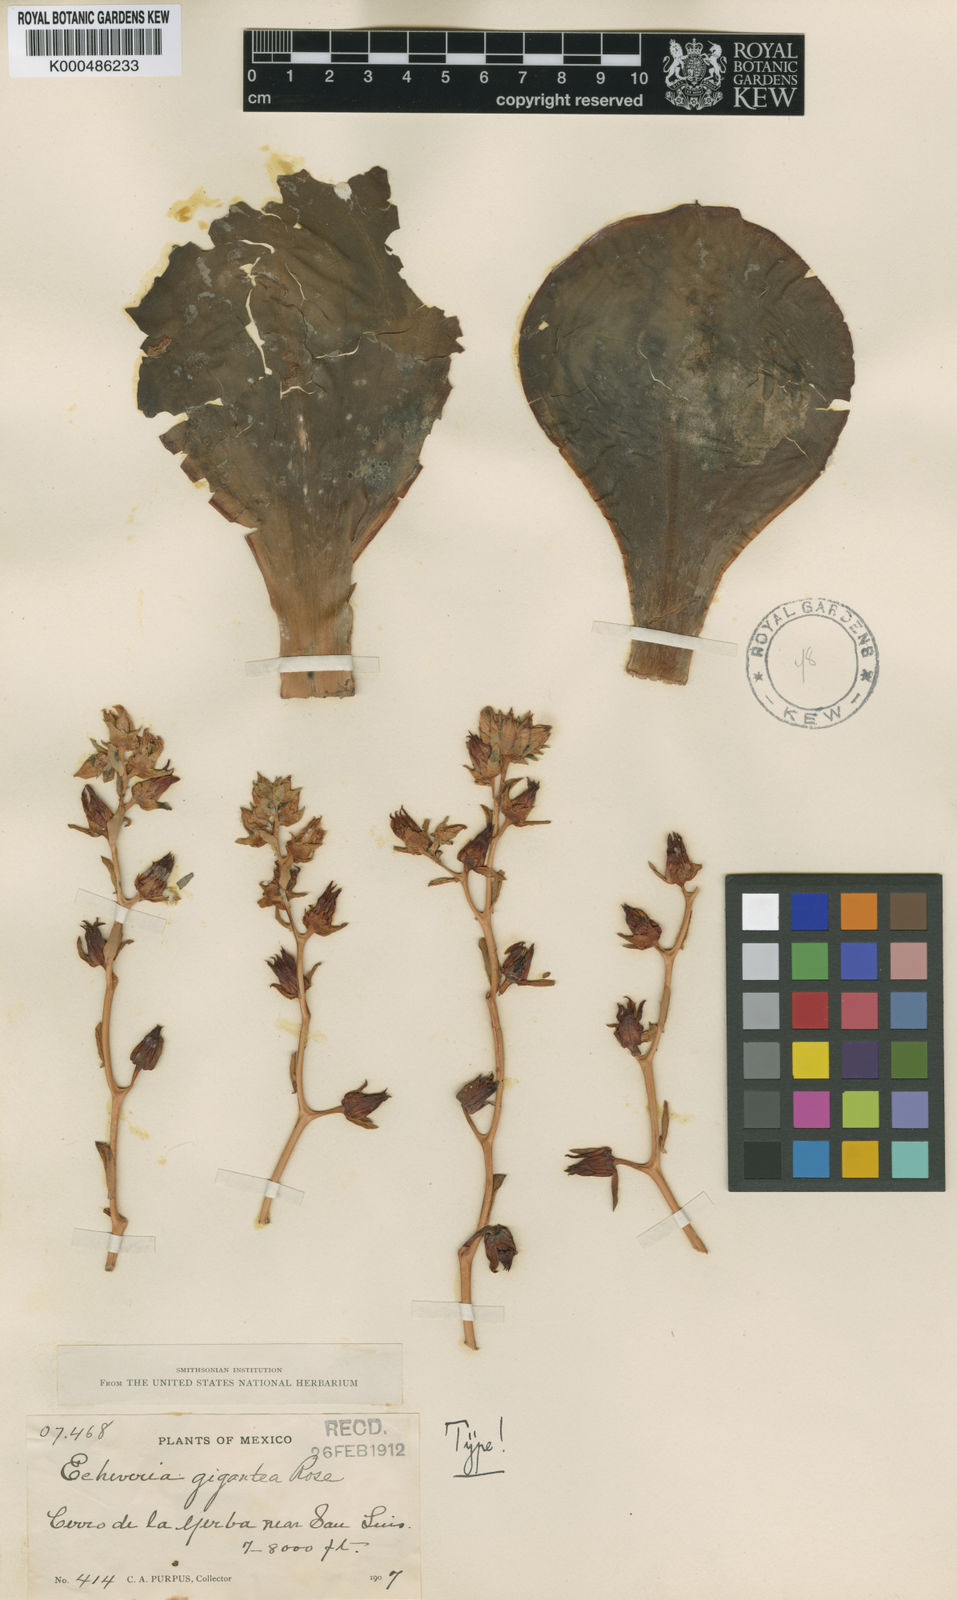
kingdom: Plantae
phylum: Tracheophyta
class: Magnoliopsida
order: Saxifragales
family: Crassulaceae
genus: Echeveria
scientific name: Echeveria gigantea
